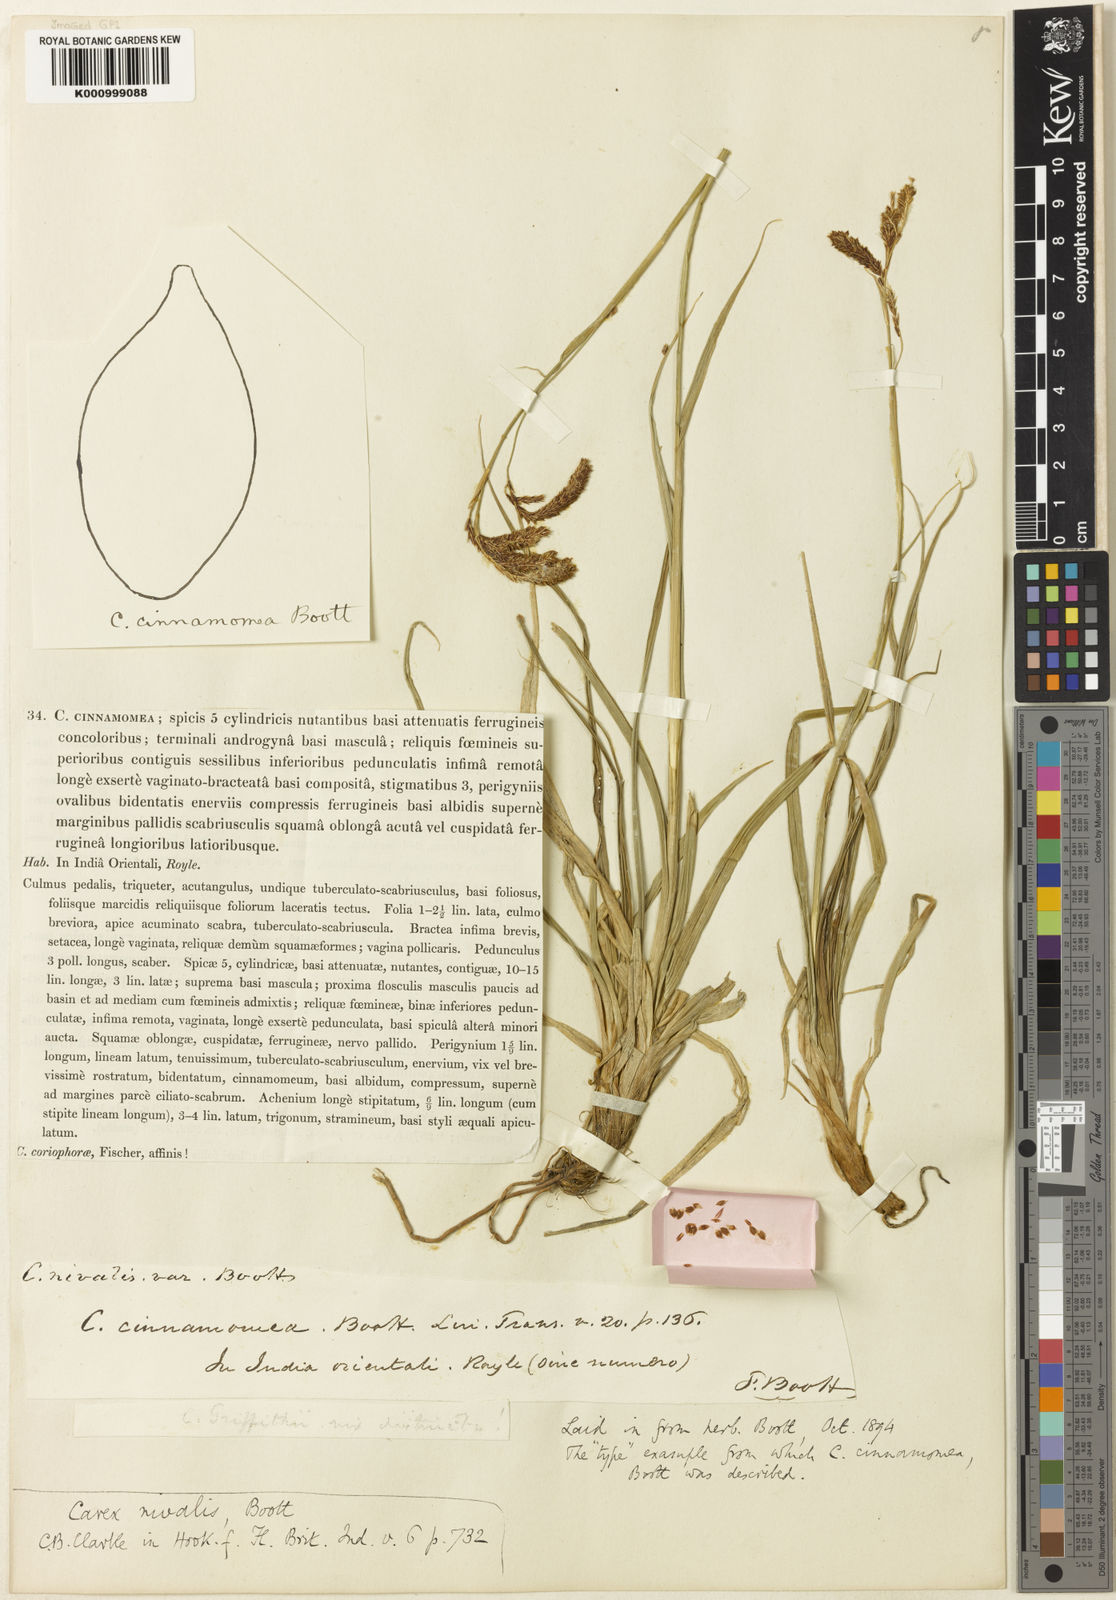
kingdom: Plantae
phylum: Tracheophyta
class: Liliopsida
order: Poales
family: Cyperaceae
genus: Carex
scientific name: Carex nivalis
